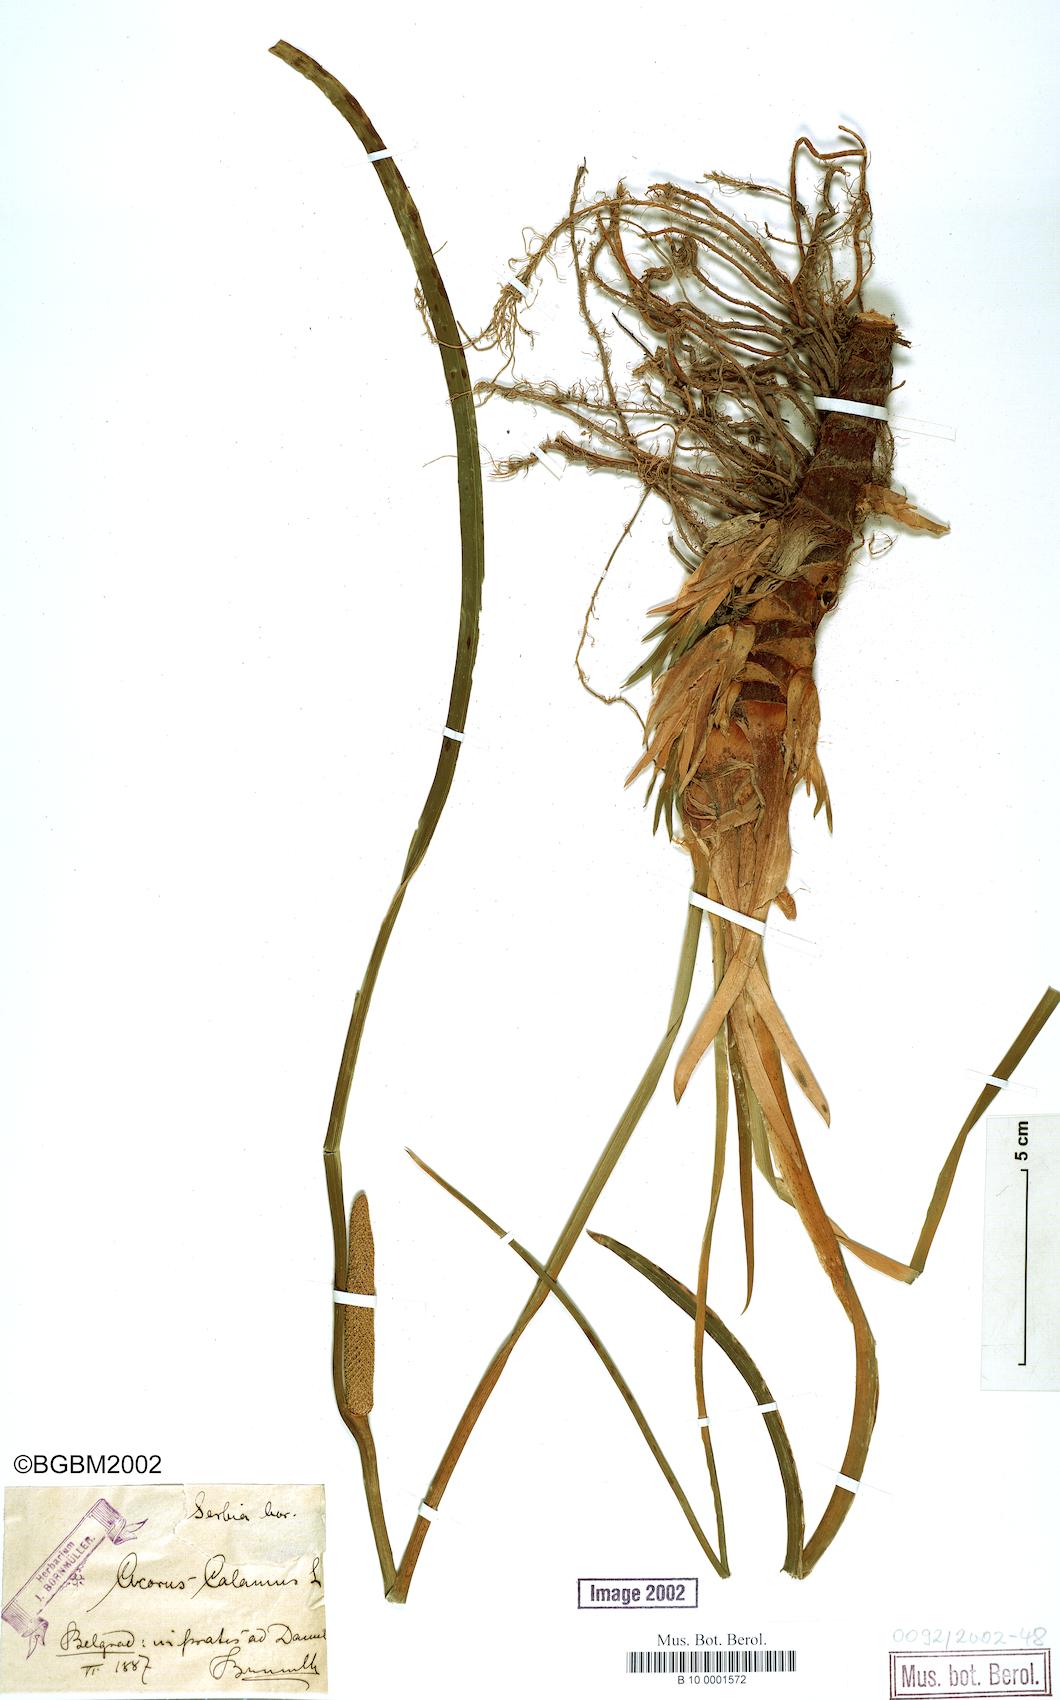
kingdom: Plantae
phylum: Tracheophyta
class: Liliopsida
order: Acorales
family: Acoraceae
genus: Acorus
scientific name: Acorus calamus
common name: Sweet-flag
